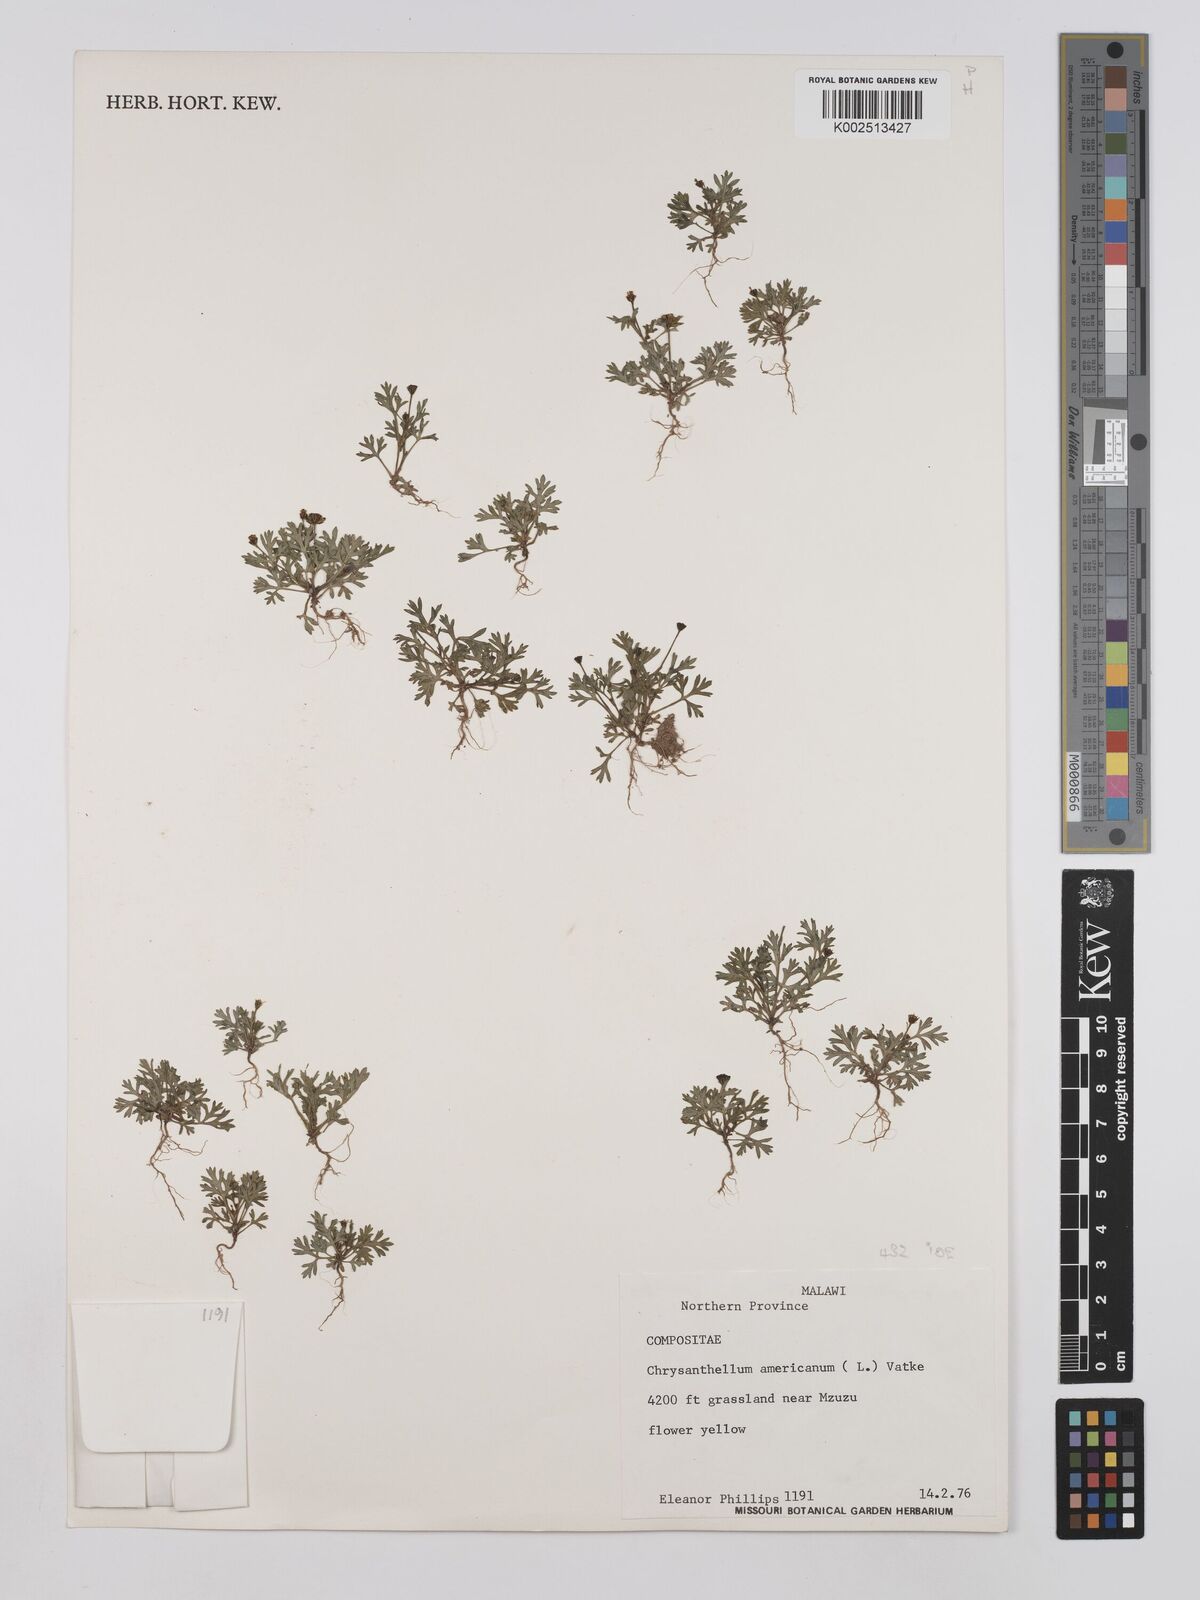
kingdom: Plantae
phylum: Tracheophyta
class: Magnoliopsida
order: Asterales
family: Asteraceae
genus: Chrysanthellum
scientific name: Chrysanthellum indicum
